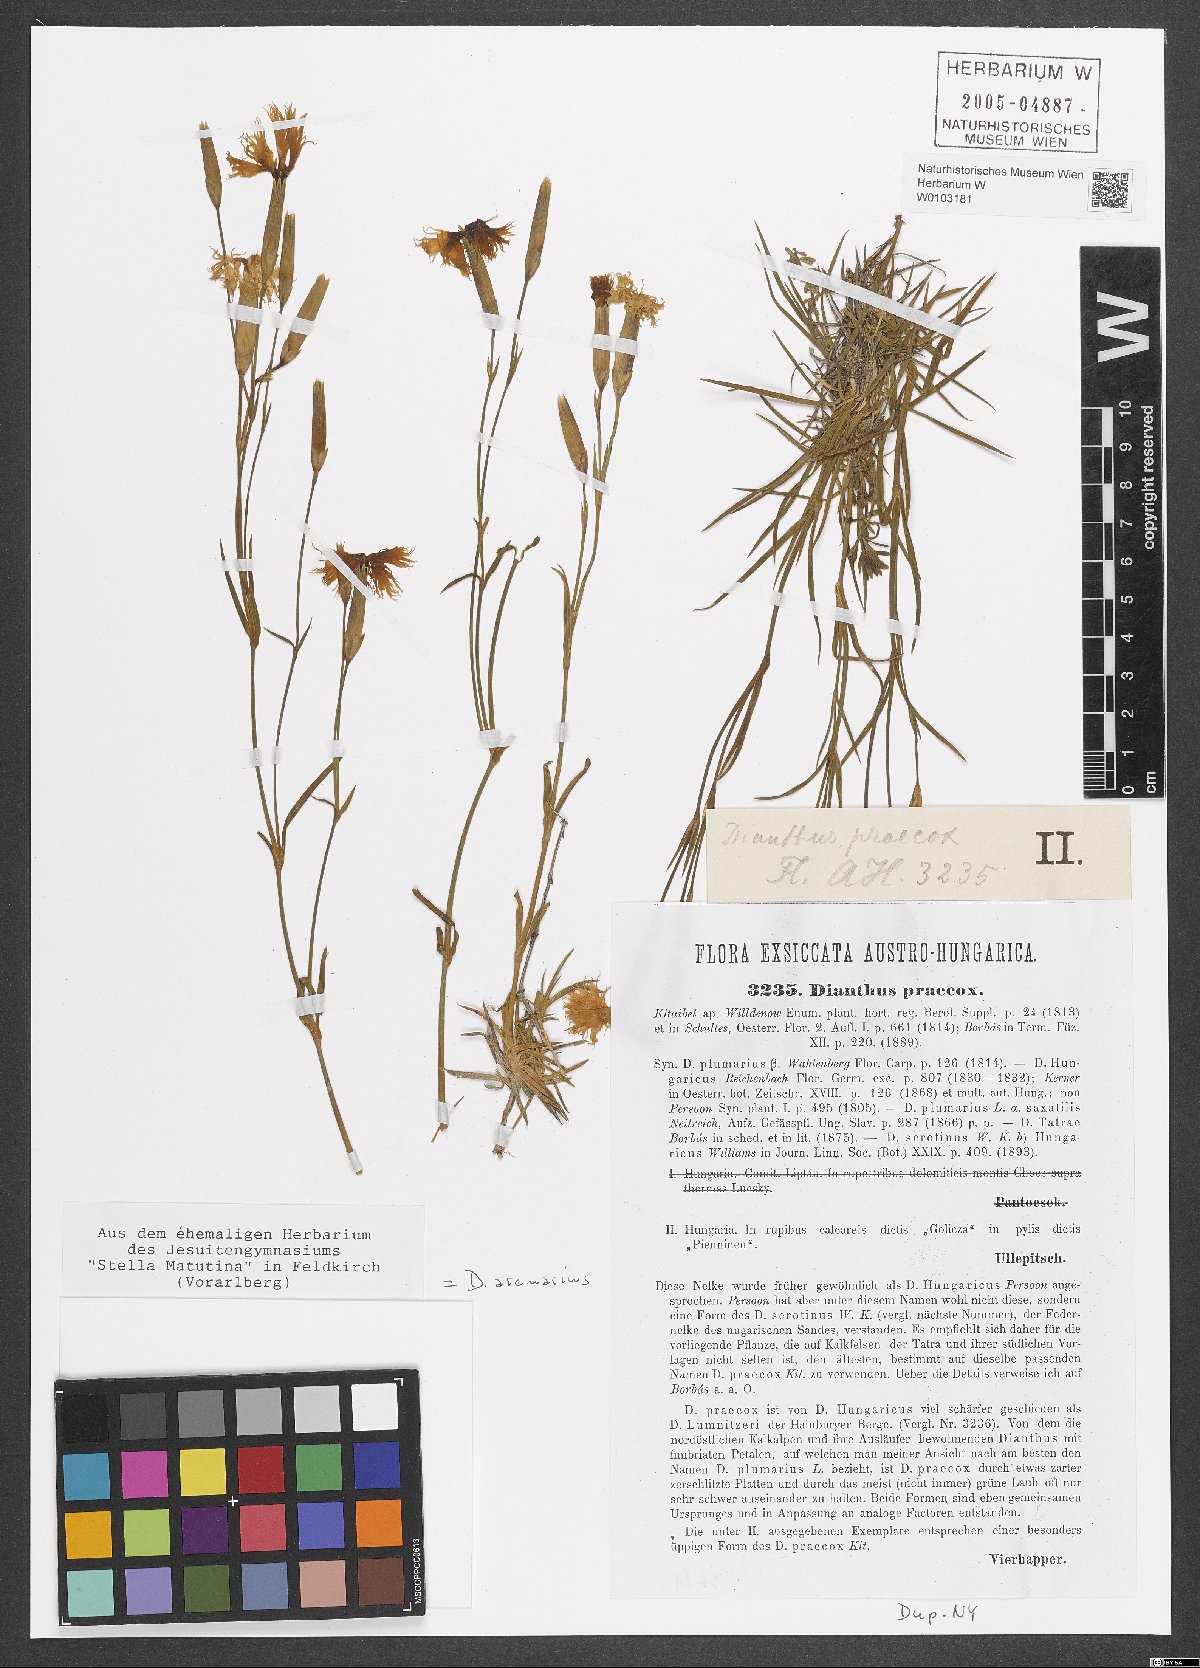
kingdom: Plantae
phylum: Tracheophyta
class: Magnoliopsida
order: Caryophyllales
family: Caryophyllaceae
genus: Dianthus
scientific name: Dianthus arenarius
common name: Stone pink
